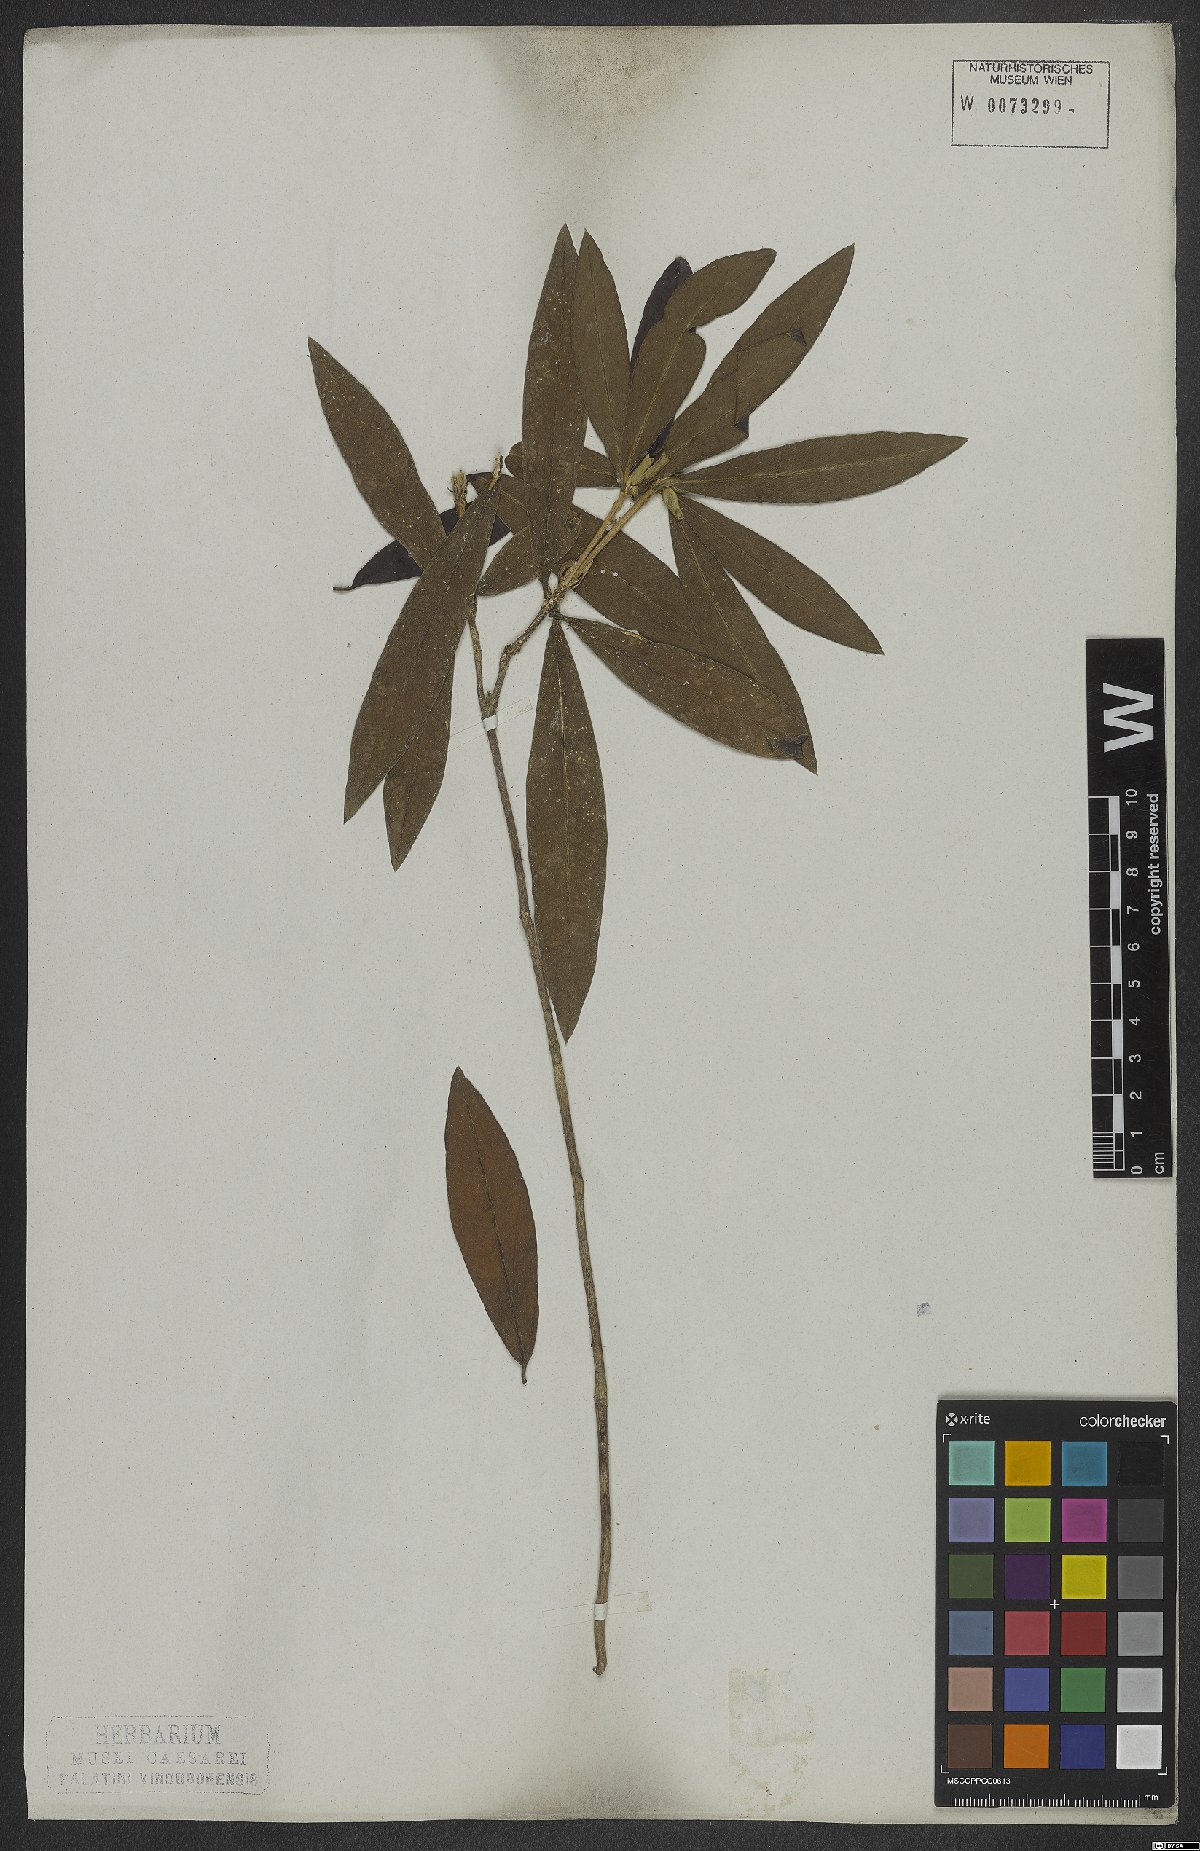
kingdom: Plantae
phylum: Tracheophyta
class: Magnoliopsida
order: Malvales
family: Thymelaeaceae
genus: Funifera
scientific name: Funifera brasiliensis
